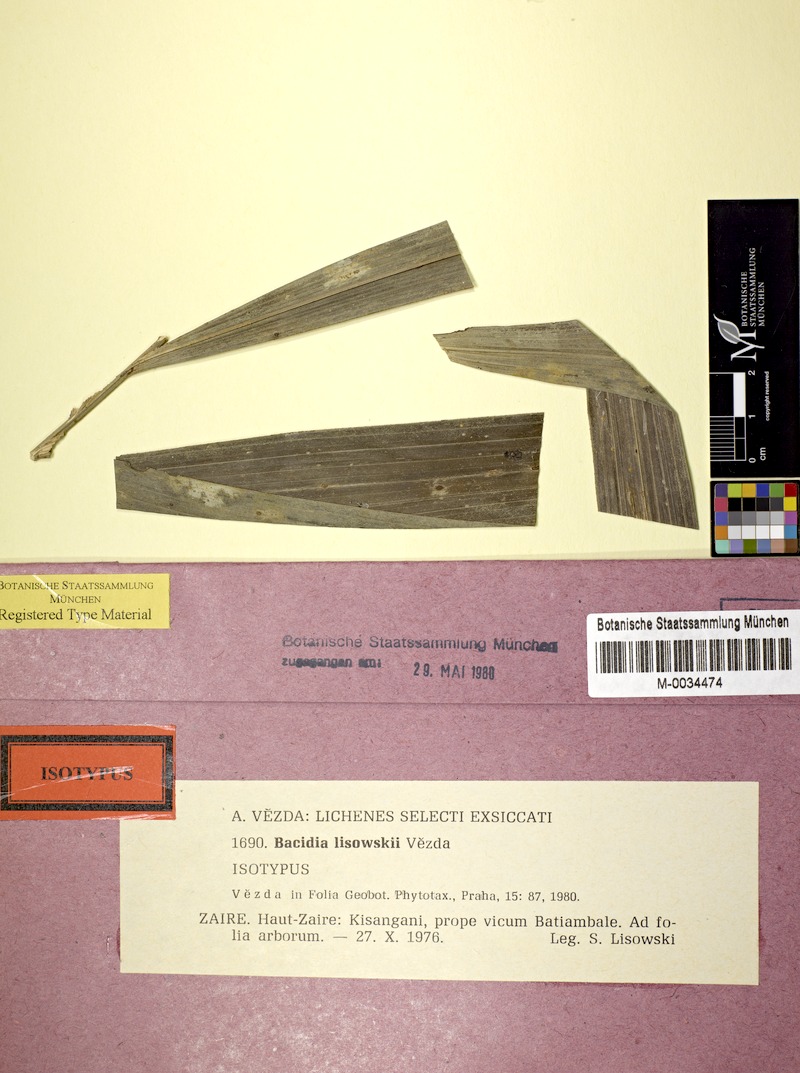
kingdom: Fungi
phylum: Ascomycota
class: Lecanoromycetes
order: Lecanorales
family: Byssolomataceae
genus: Fellhanera
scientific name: Fellhanera lisowskii
